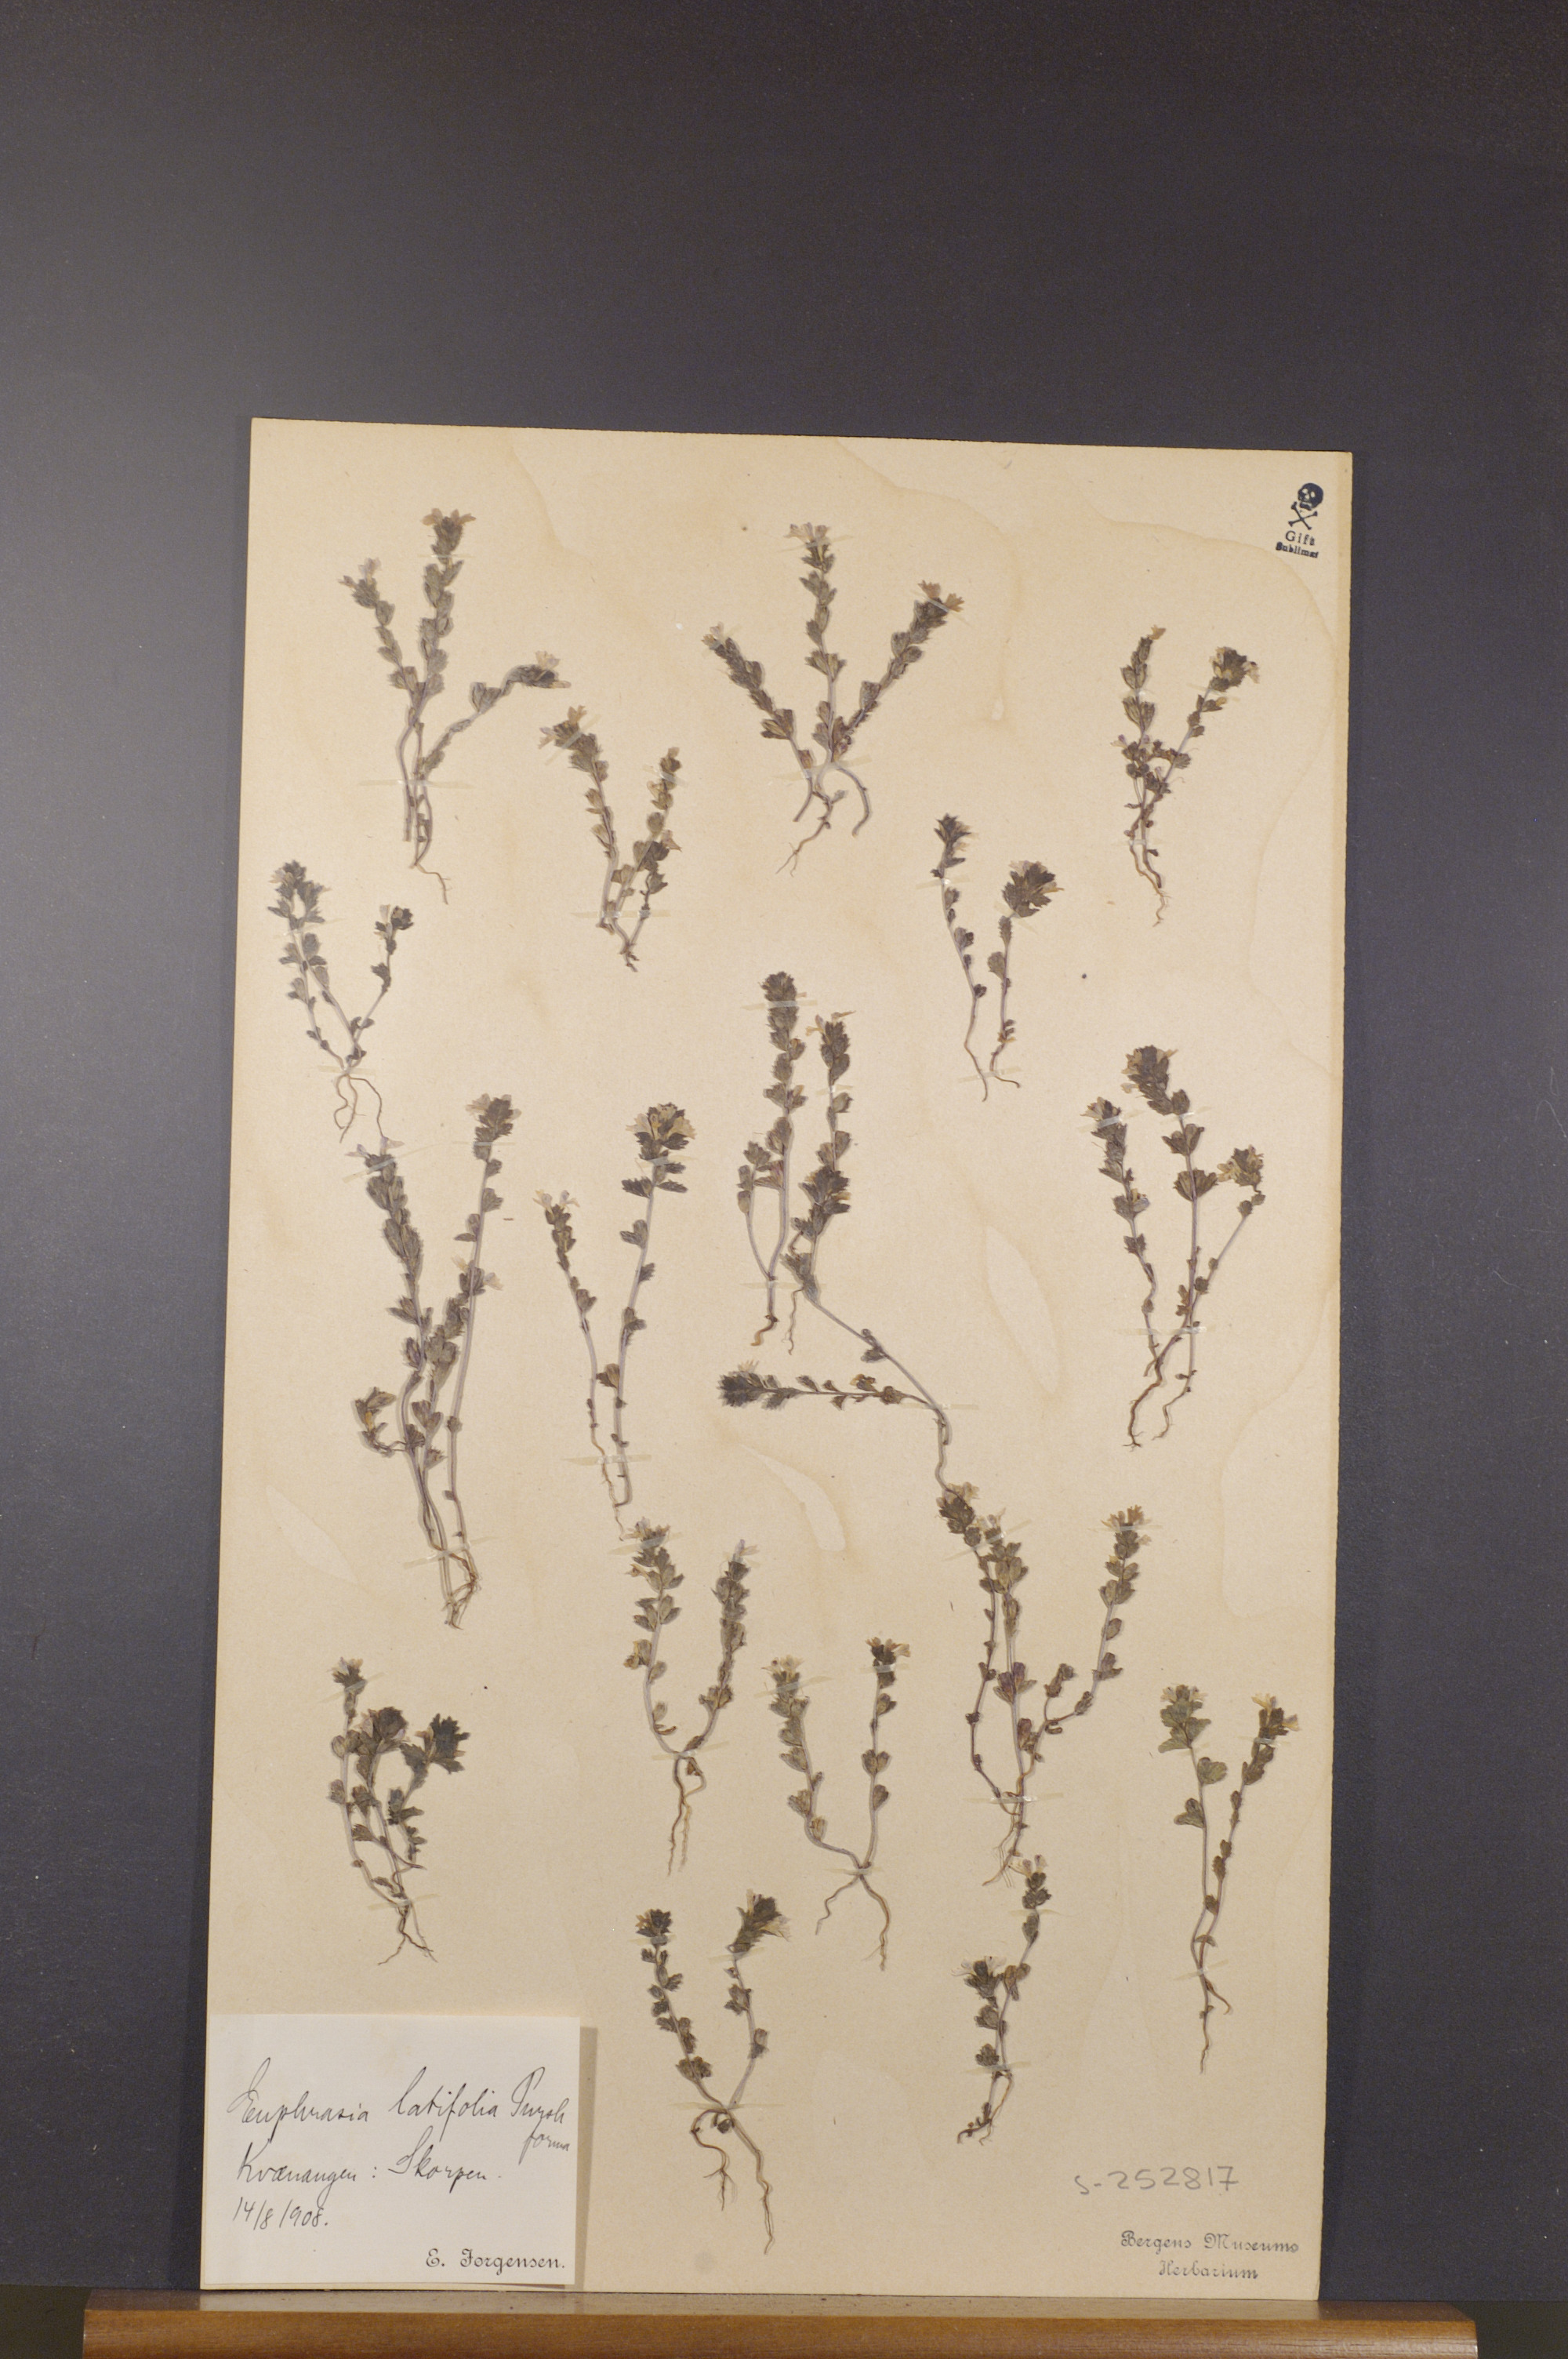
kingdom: Plantae
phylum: Tracheophyta
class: Magnoliopsida
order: Lamiales
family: Orobanchaceae
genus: Euphrasia
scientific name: Euphrasia wettsteinii
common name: Wettstein's eyebright
